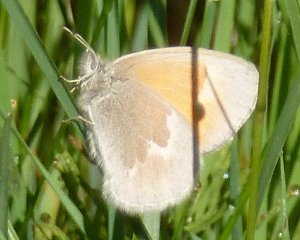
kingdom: Animalia
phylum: Arthropoda
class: Insecta
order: Lepidoptera
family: Nymphalidae
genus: Coenonympha
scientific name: Coenonympha tullia
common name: Large Heath
